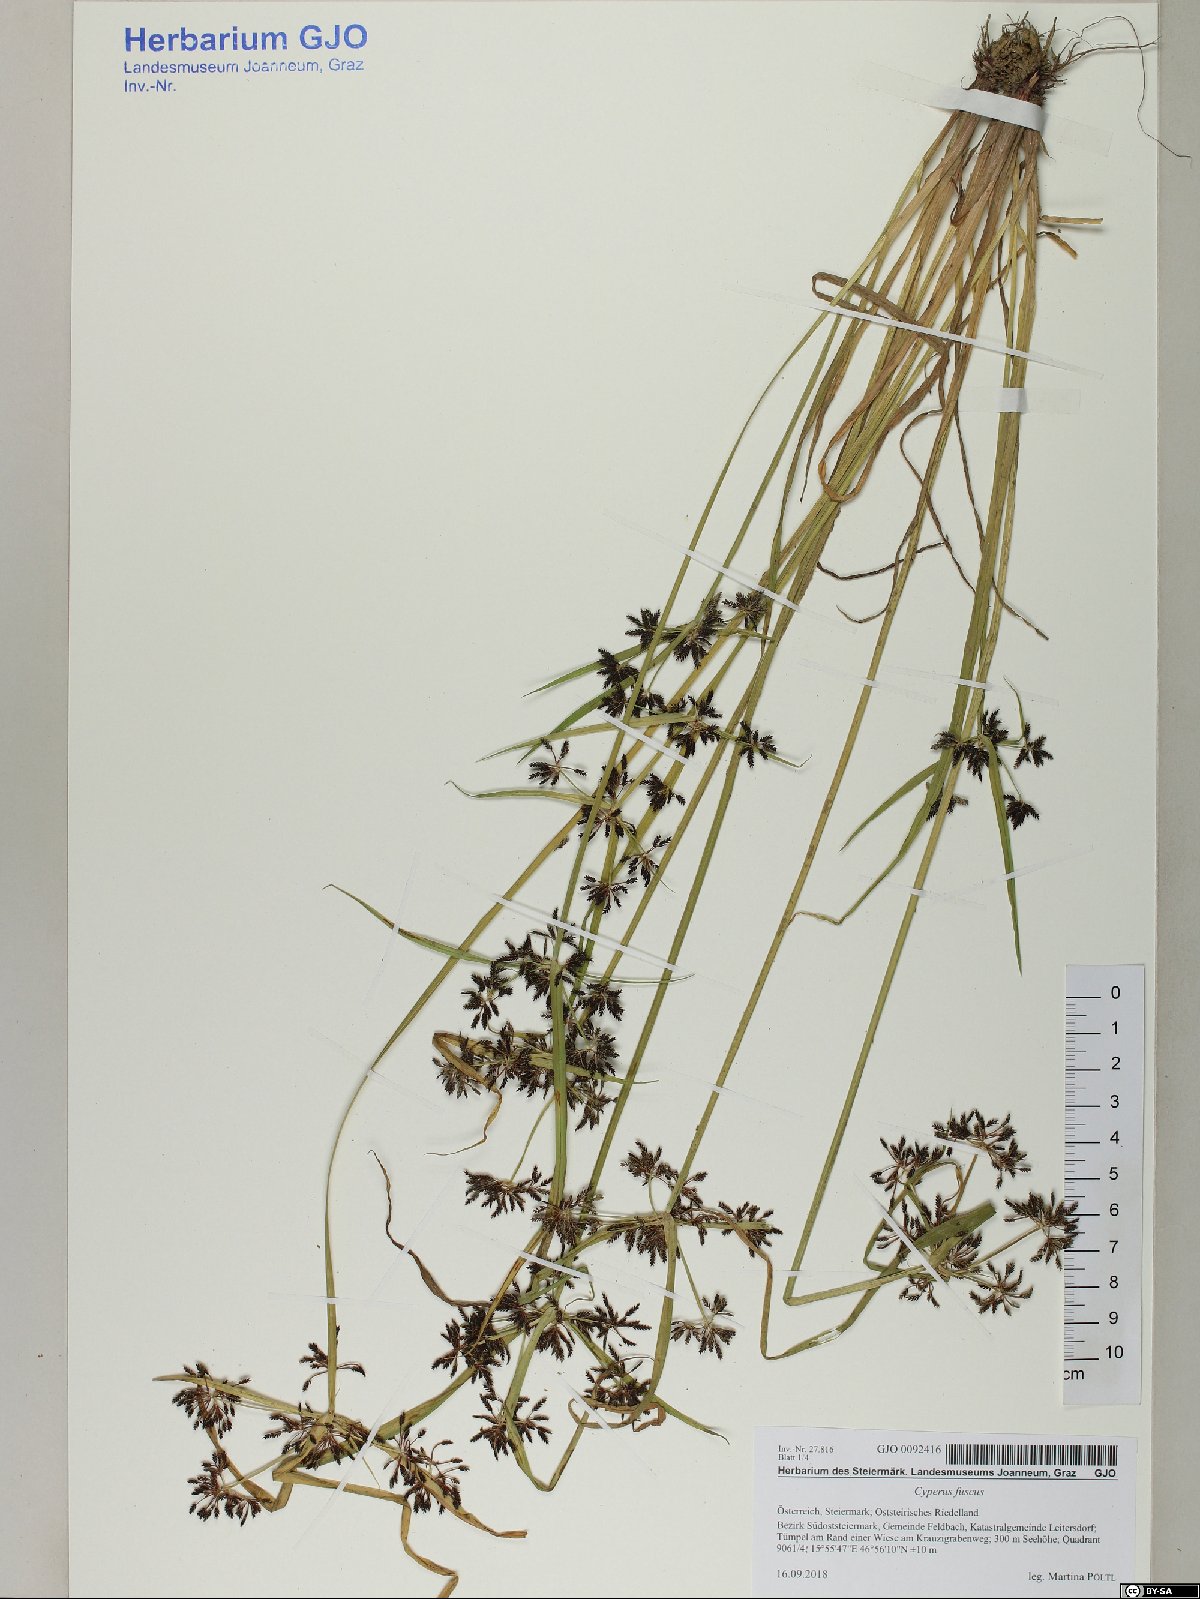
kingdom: Plantae
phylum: Tracheophyta
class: Liliopsida
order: Poales
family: Cyperaceae
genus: Cyperus
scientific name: Cyperus fuscus
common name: Brown galingale
